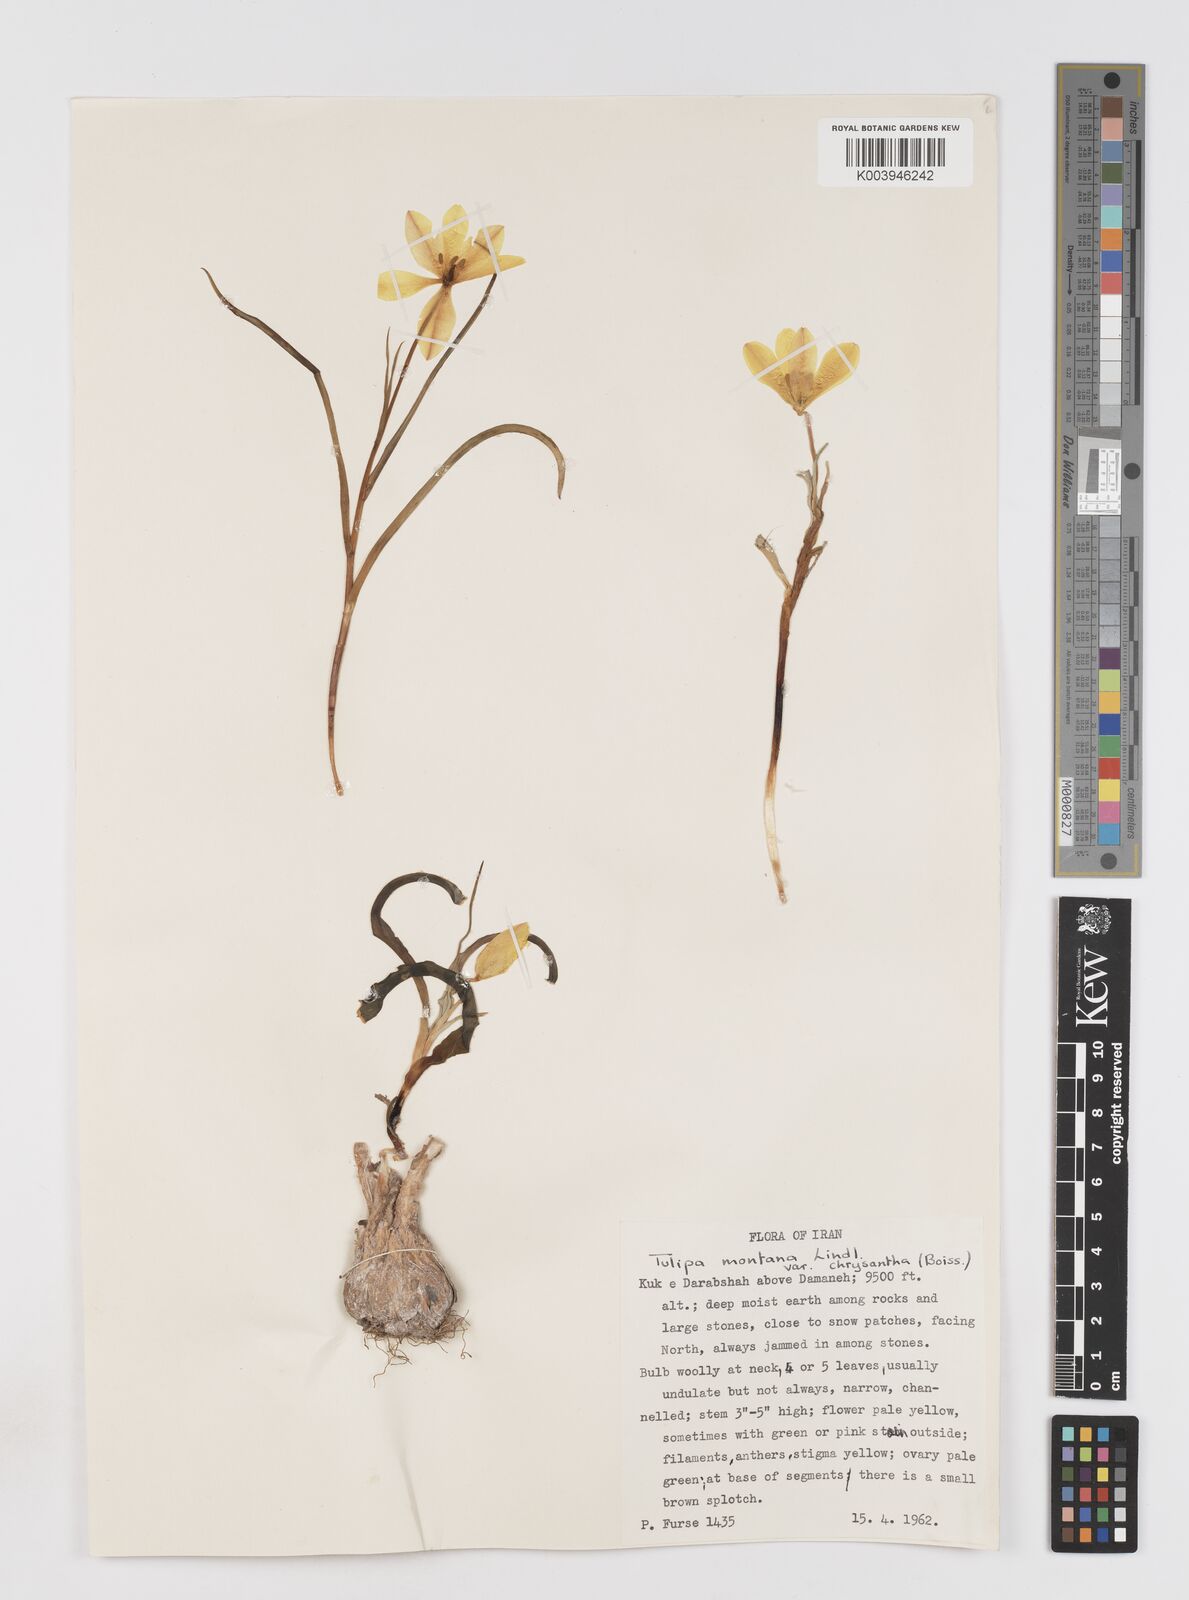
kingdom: Plantae
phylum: Tracheophyta
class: Liliopsida
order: Liliales
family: Liliaceae
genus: Tulipa
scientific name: Tulipa montana
